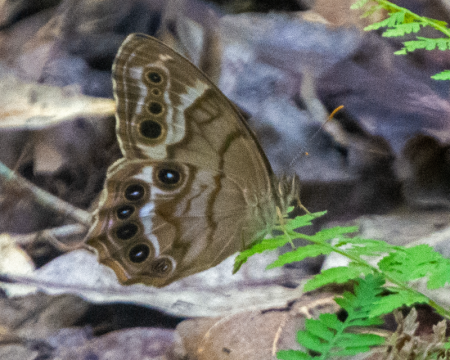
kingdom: Animalia
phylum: Arthropoda
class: Insecta
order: Lepidoptera
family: Nymphalidae
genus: Enodia
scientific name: Enodia portlandia
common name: Southern Pearly Eye
